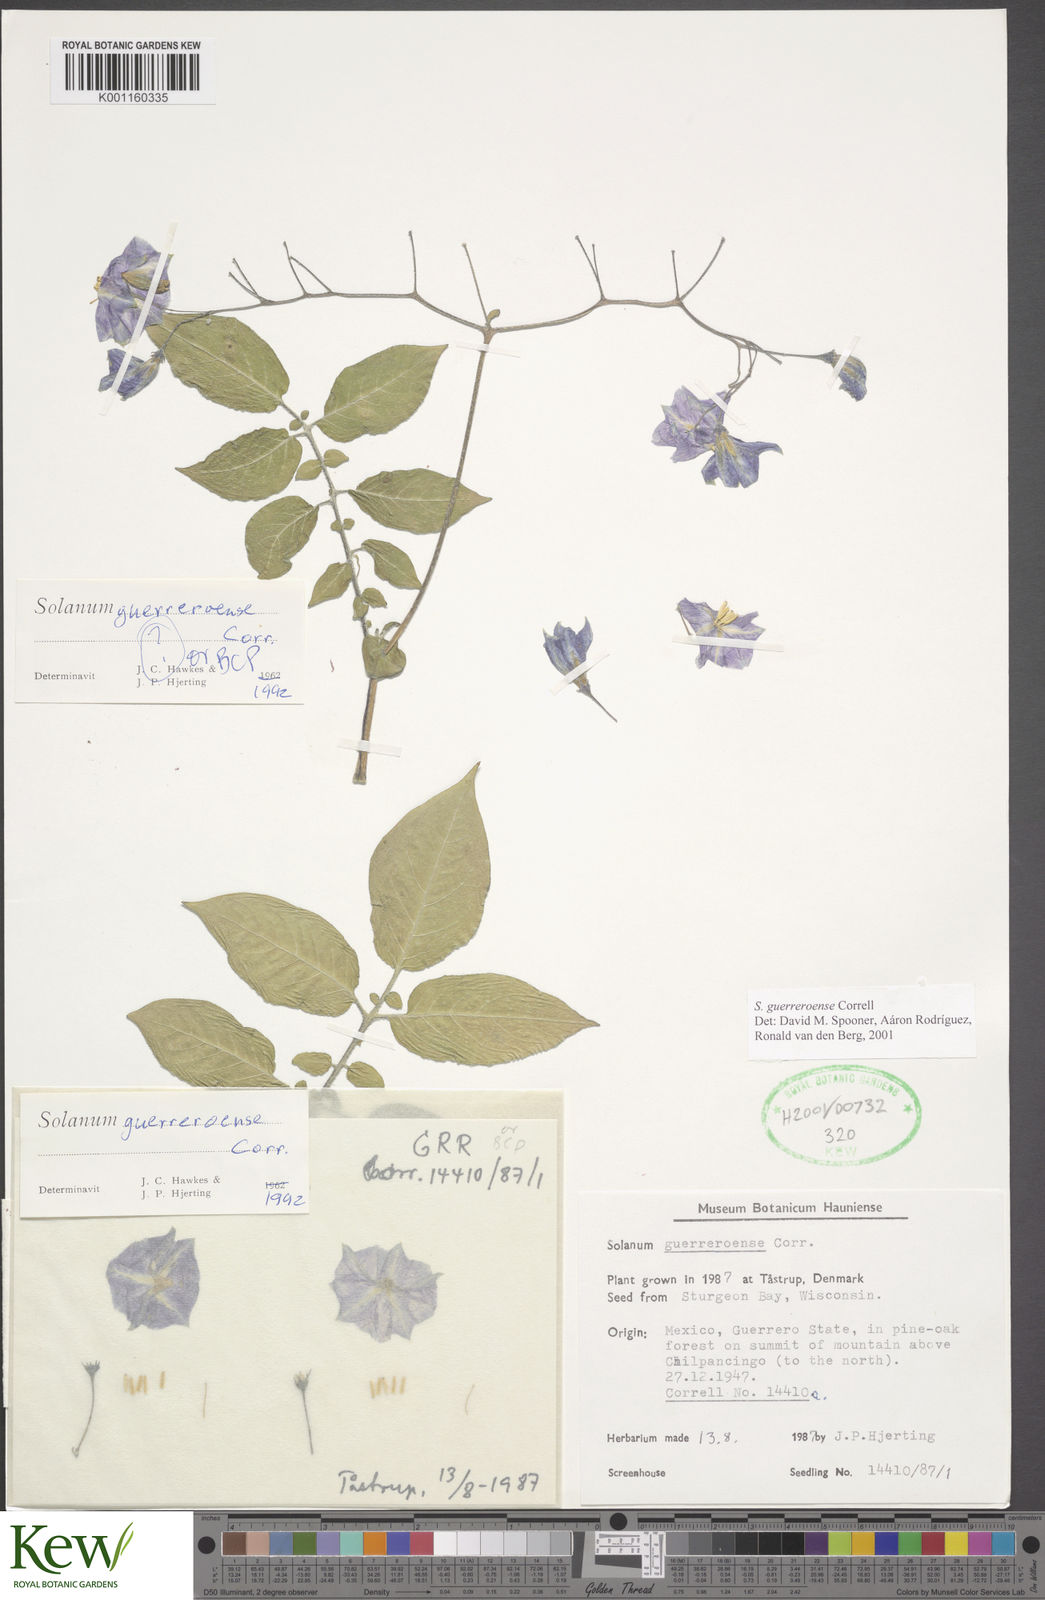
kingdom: Plantae
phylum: Tracheophyta
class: Magnoliopsida
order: Solanales
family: Solanaceae
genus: Solanum
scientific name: Solanum guerreroense
